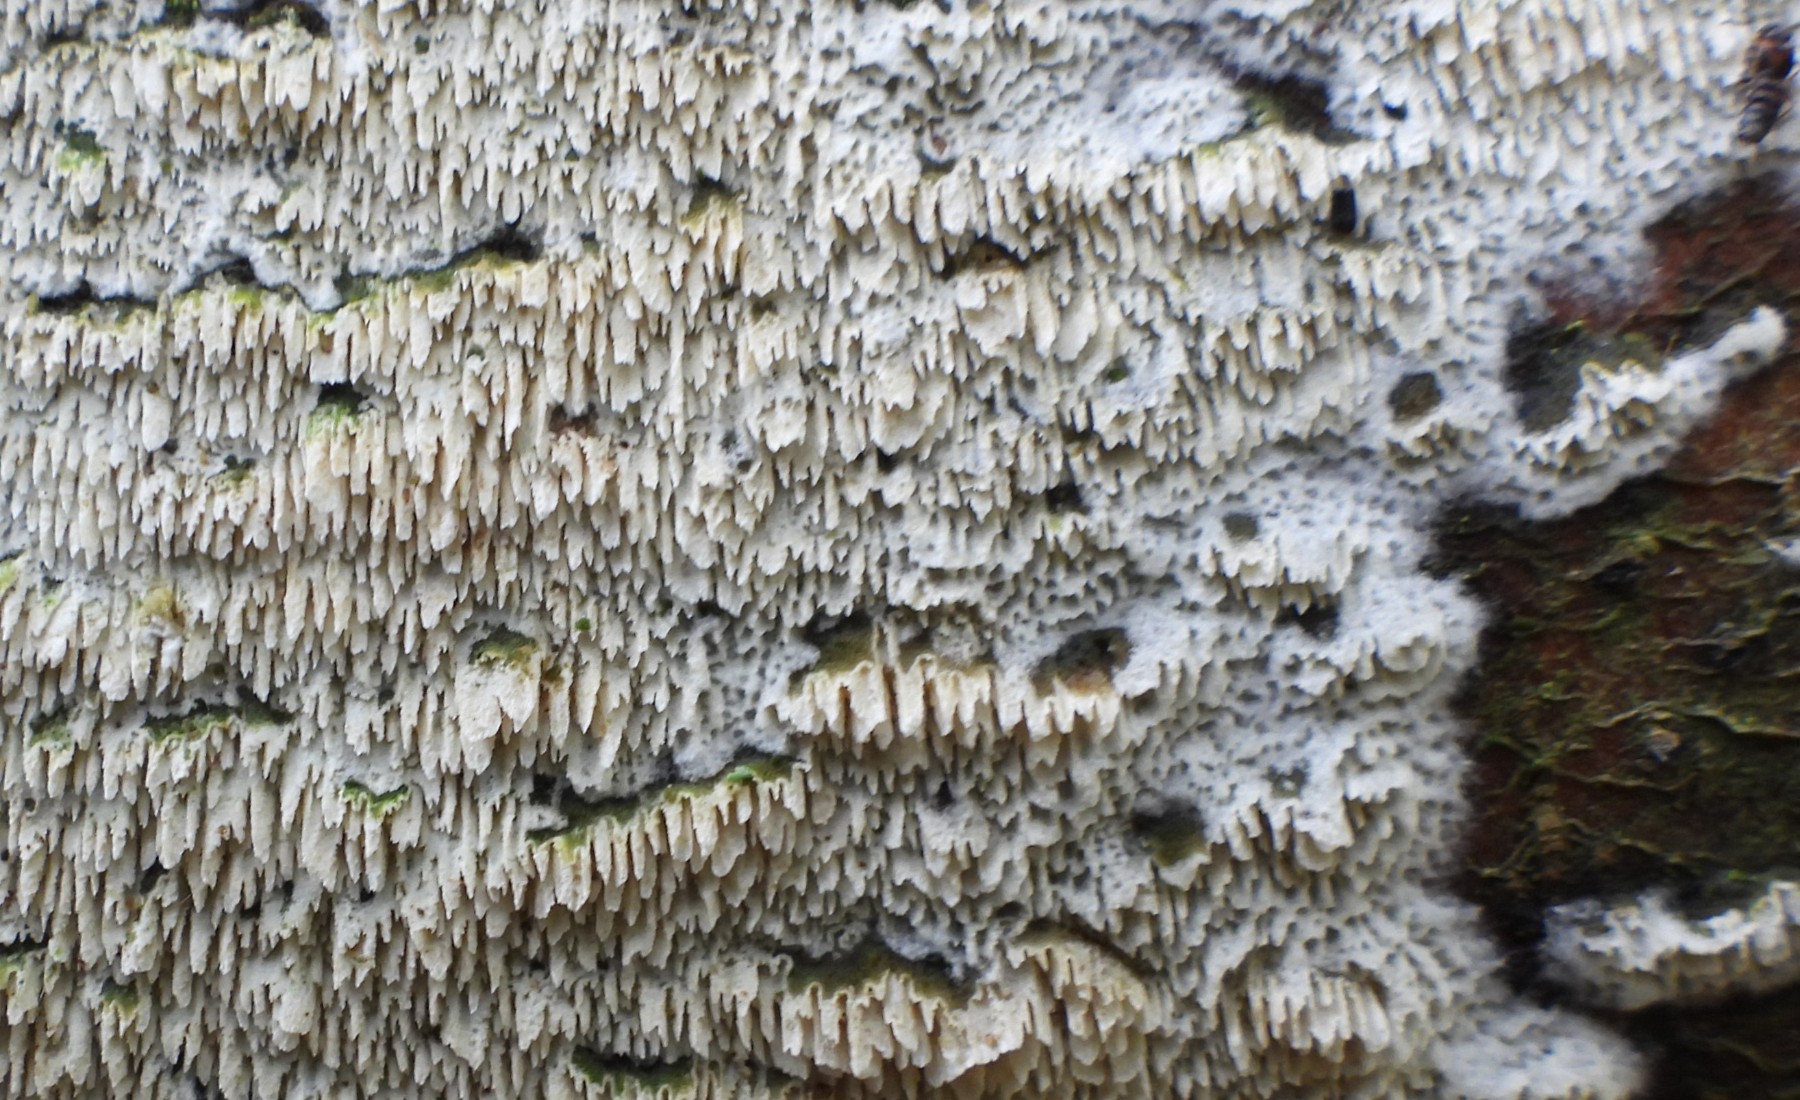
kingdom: Fungi
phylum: Basidiomycota
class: Agaricomycetes
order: Hymenochaetales
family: Schizoporaceae
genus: Schizopora
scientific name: Schizopora paradoxa
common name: hvid tandsvamp
